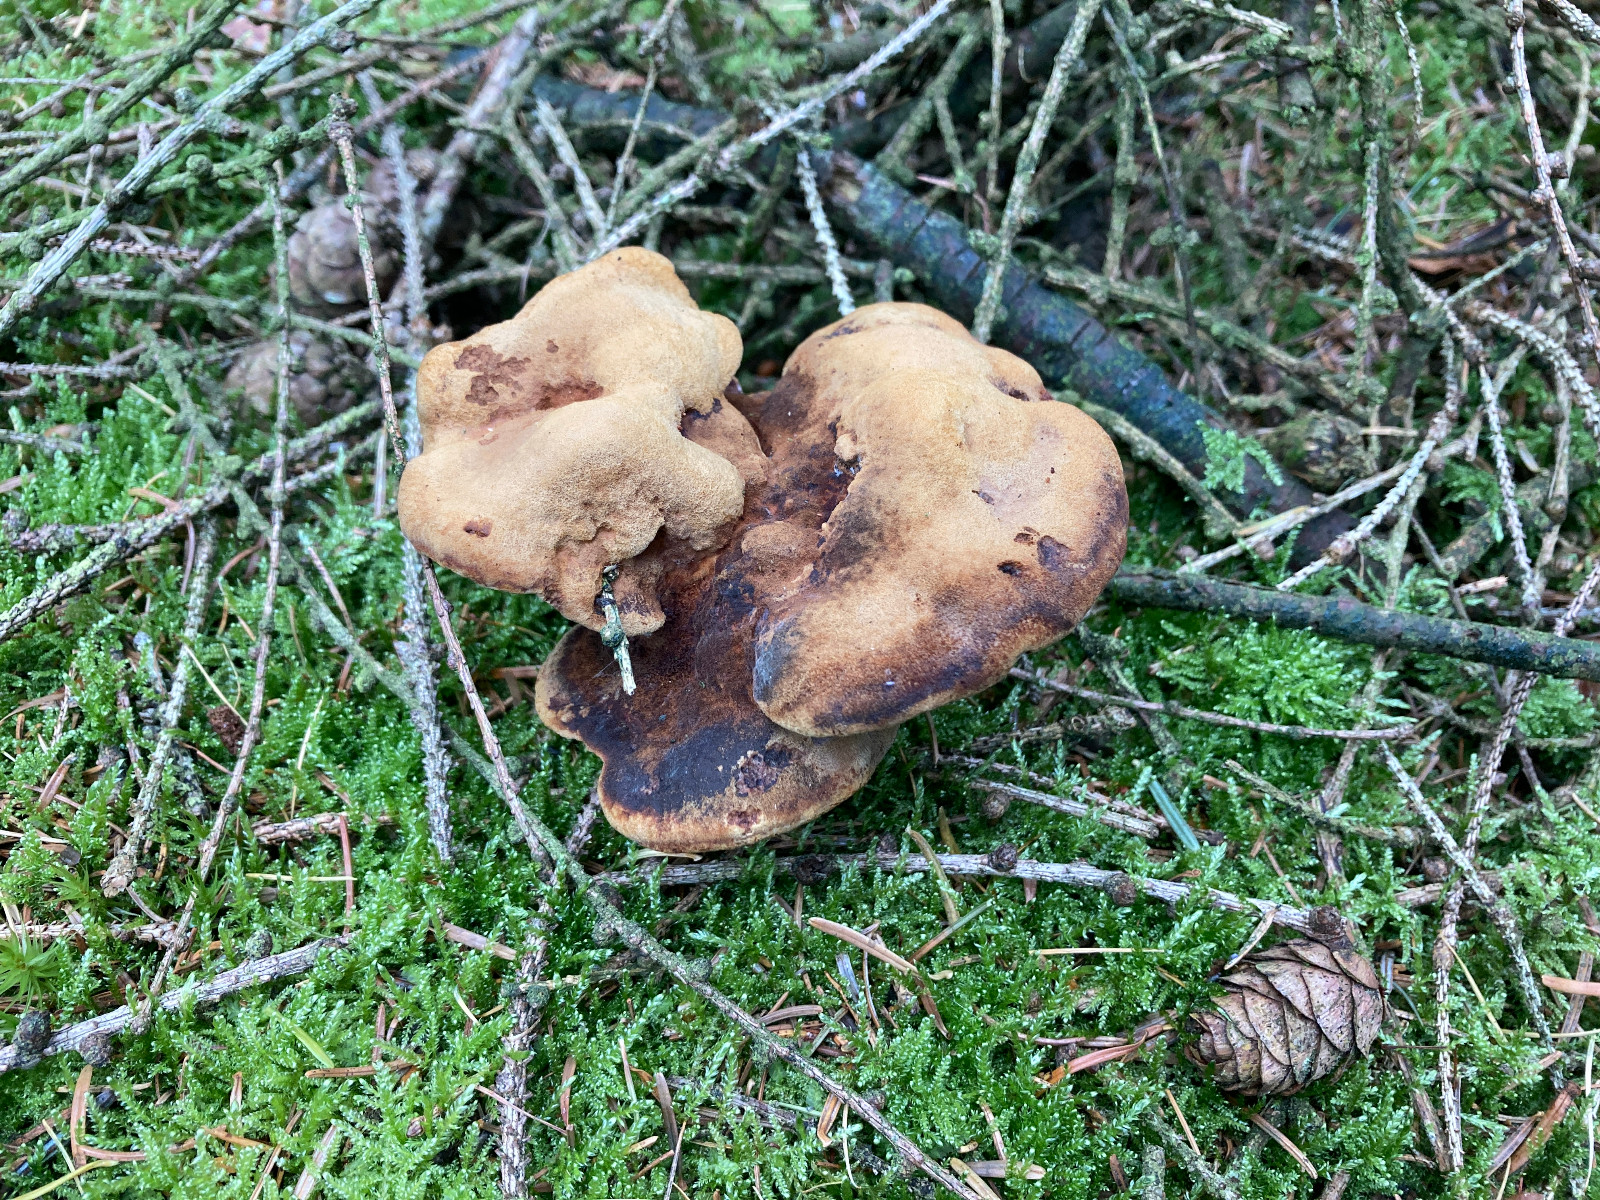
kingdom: Fungi
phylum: Basidiomycota
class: Agaricomycetes
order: Polyporales
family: Laetiporaceae
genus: Phaeolus
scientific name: Phaeolus schweinitzii
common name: brunporesvamp
